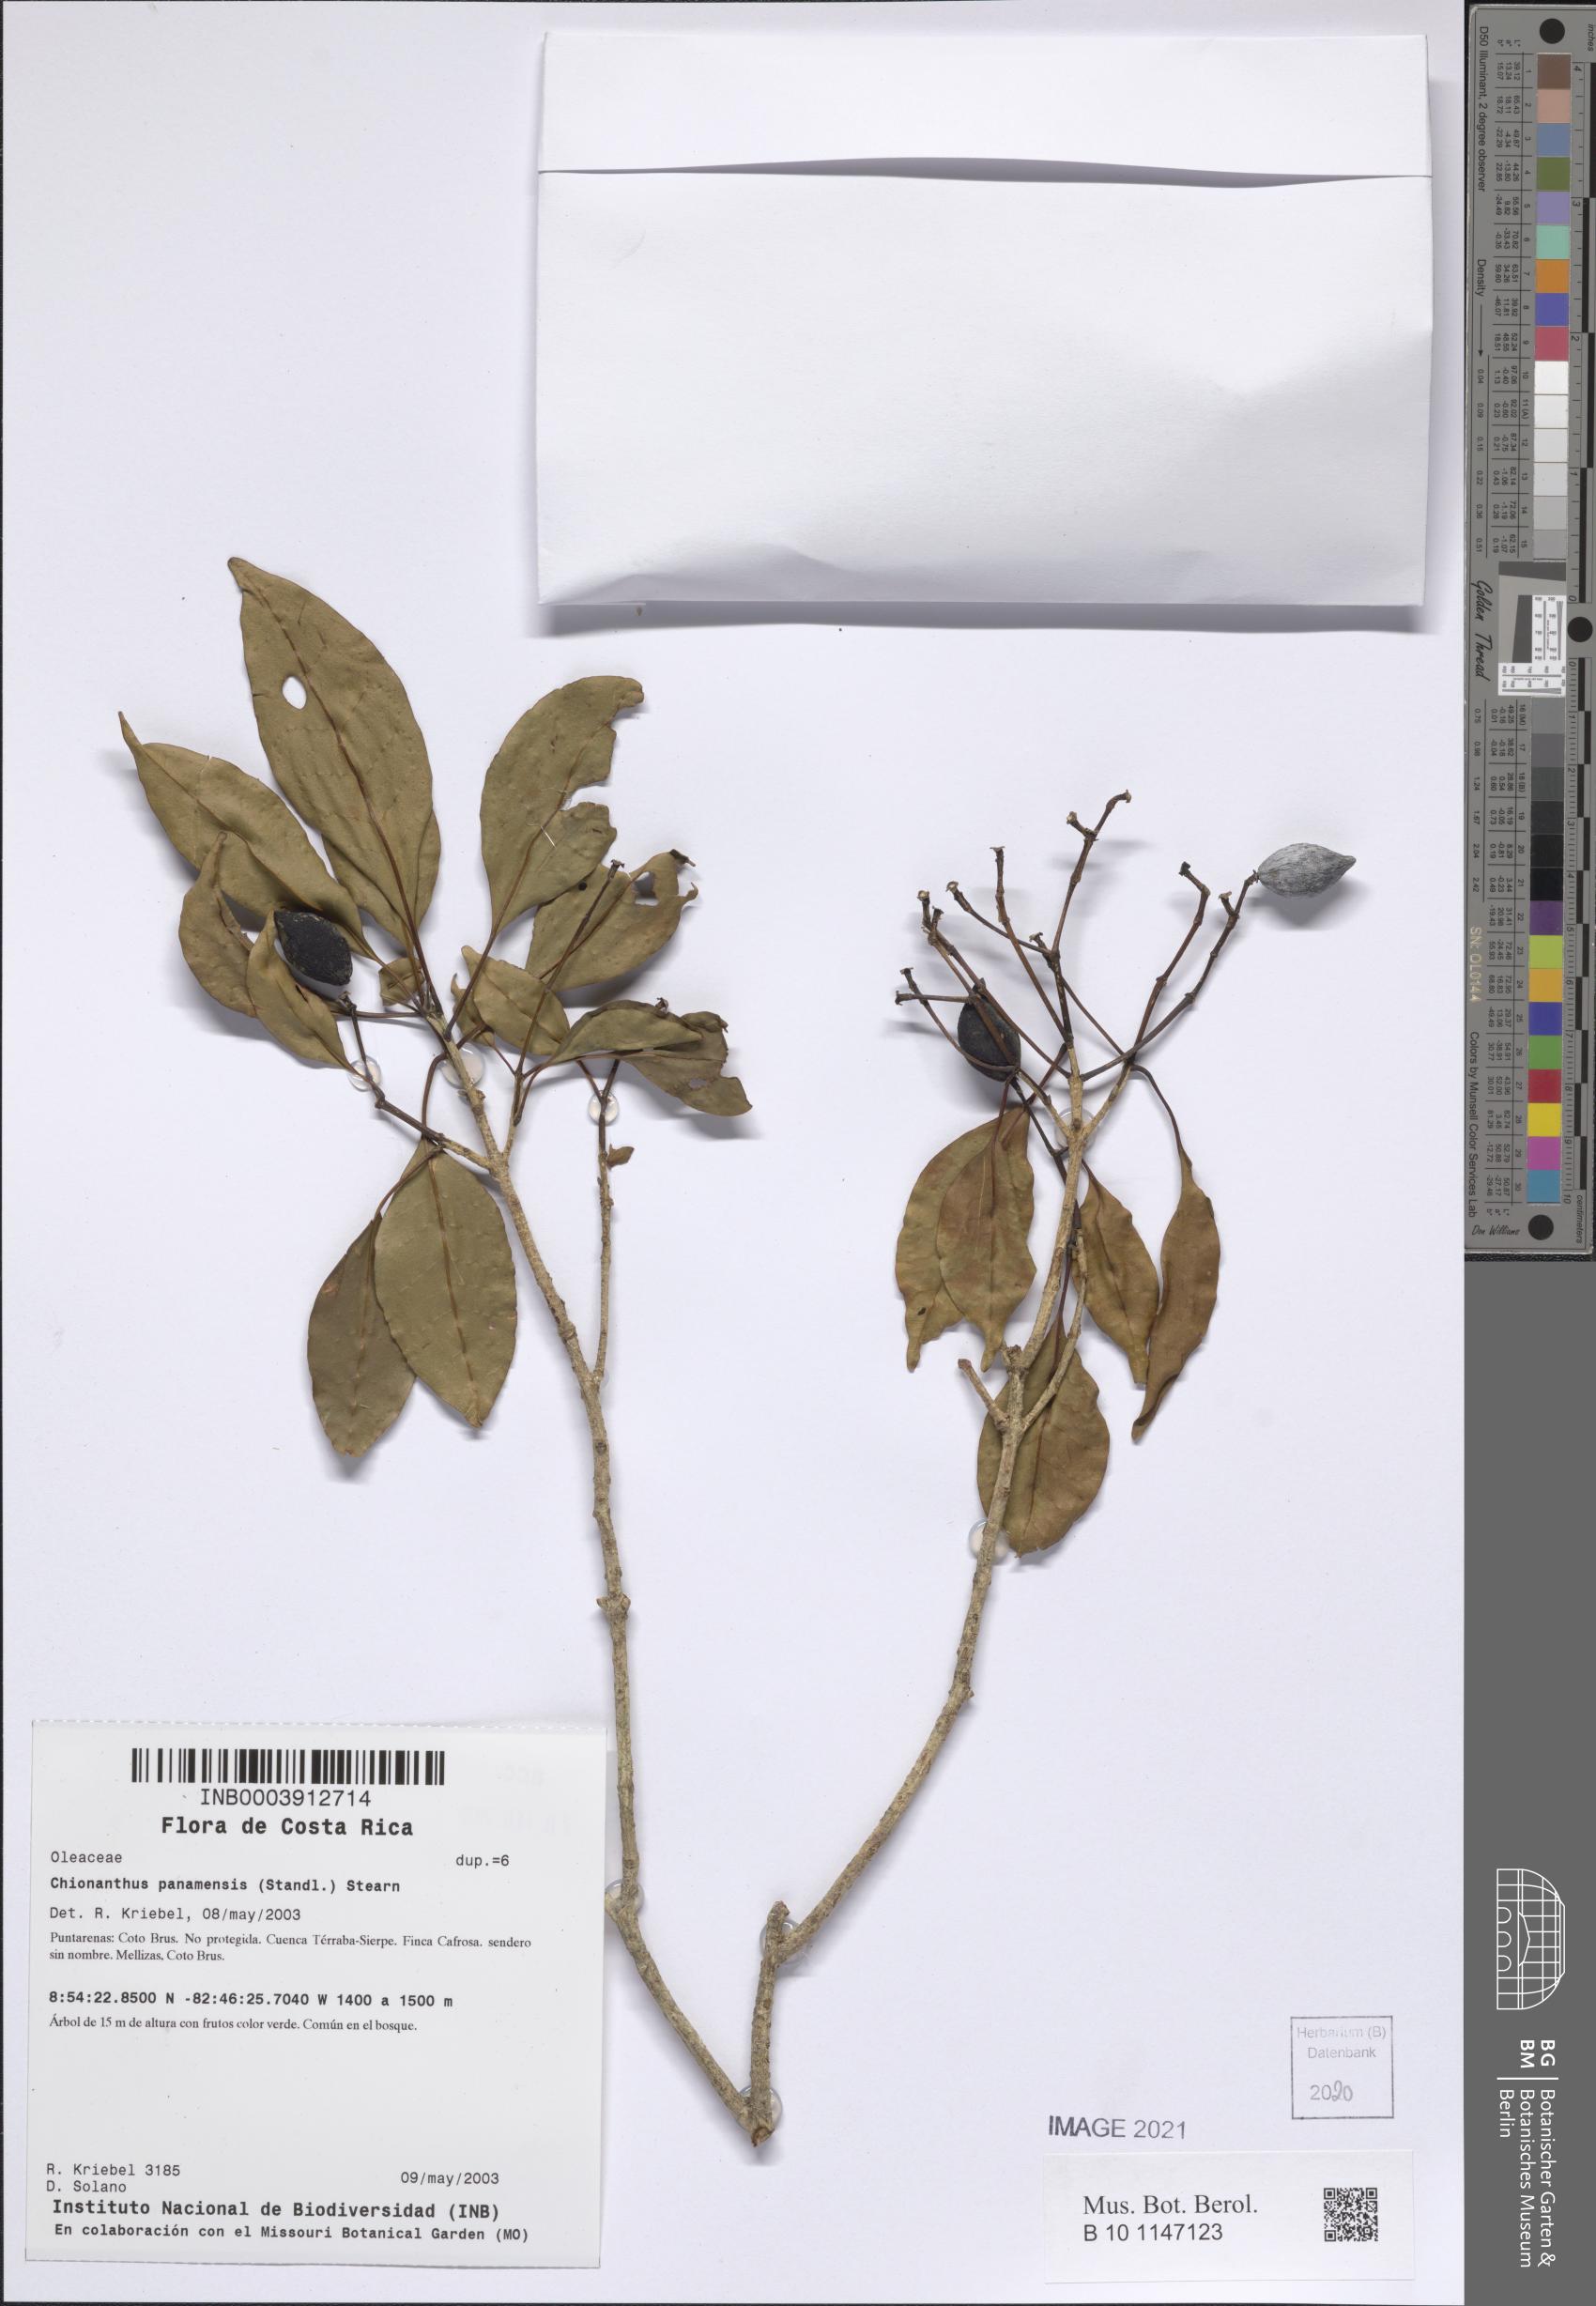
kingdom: Plantae
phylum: Tracheophyta
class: Magnoliopsida
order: Lamiales
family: Oleaceae
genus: Chionanthus
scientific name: Chionanthus panamensis
